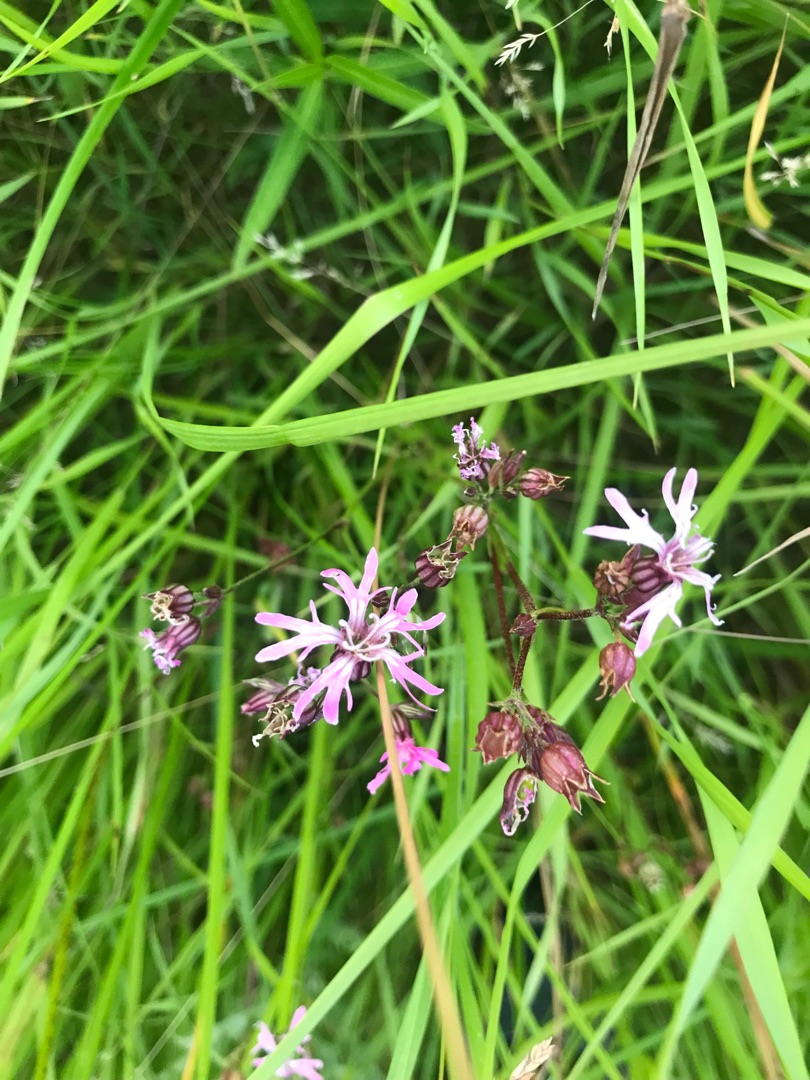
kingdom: Plantae
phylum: Tracheophyta
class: Magnoliopsida
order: Caryophyllales
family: Caryophyllaceae
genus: Silene
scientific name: Silene flos-cuculi
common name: Trævlekrone
